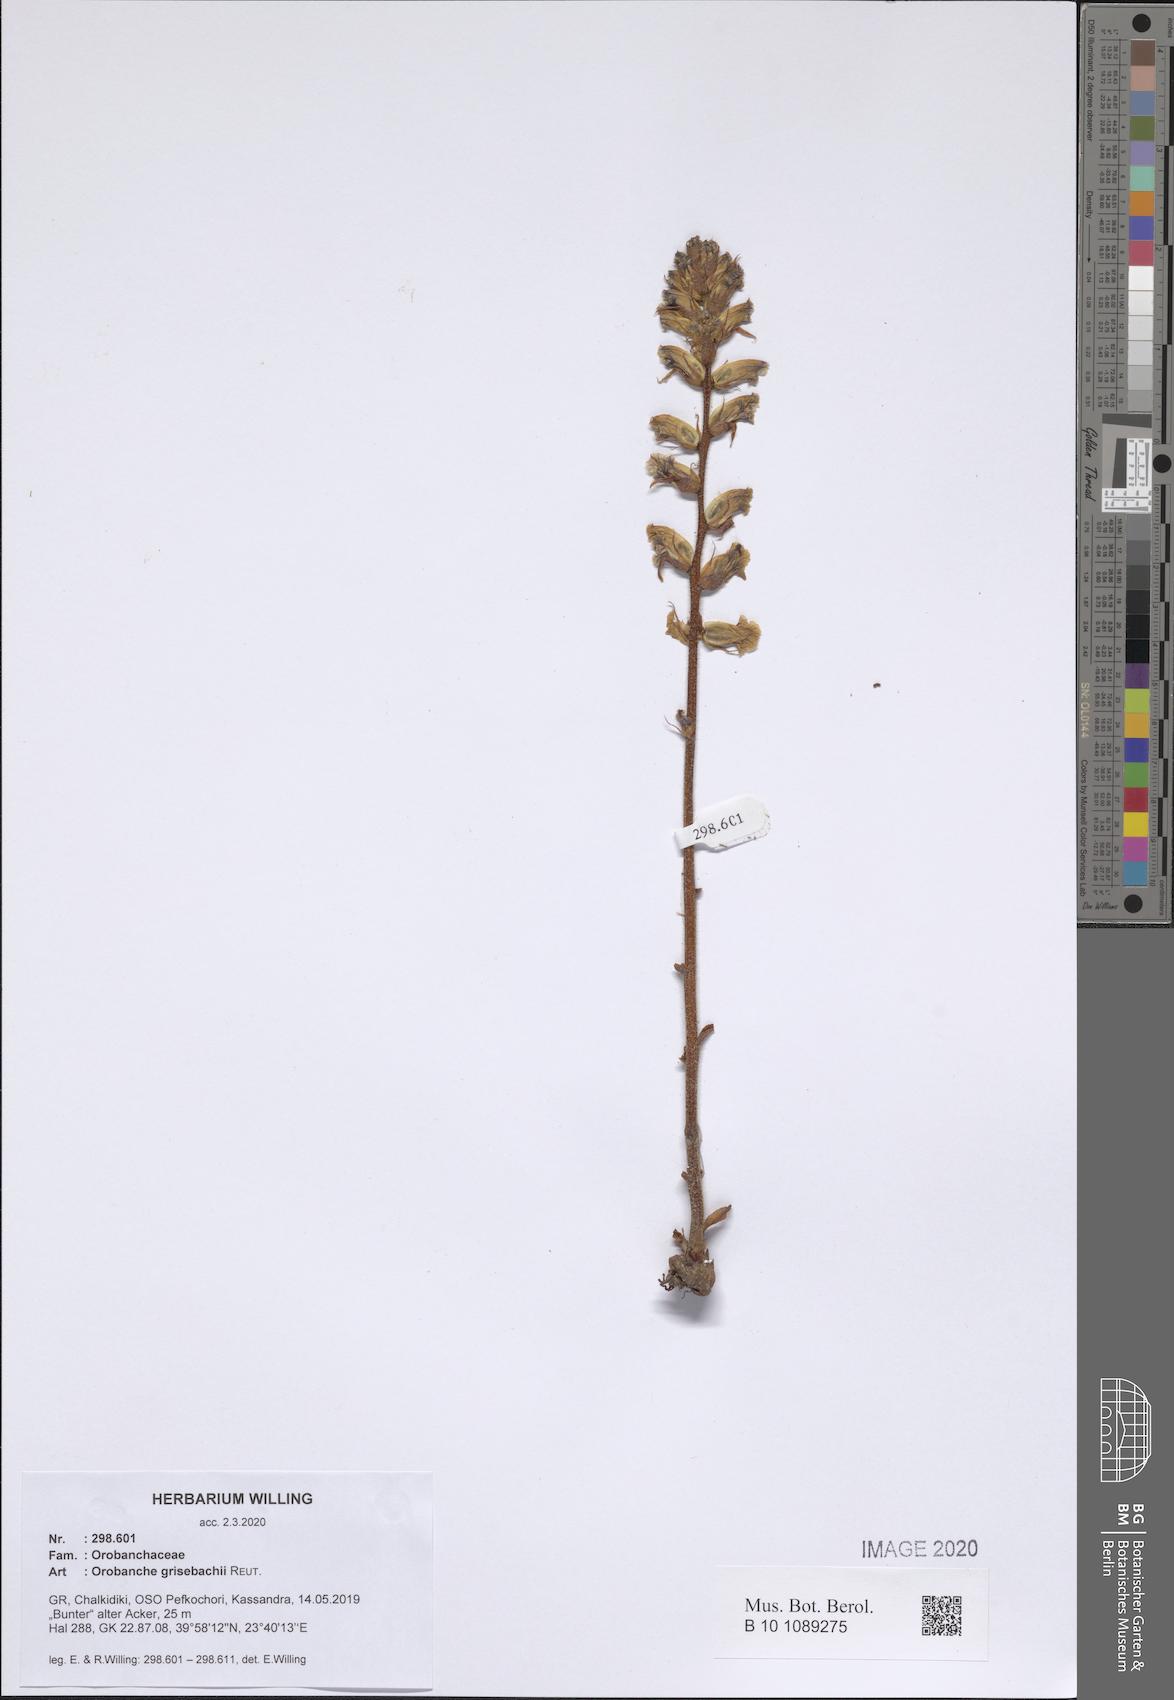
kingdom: Plantae
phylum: Tracheophyta
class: Magnoliopsida
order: Lamiales
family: Orobanchaceae
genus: Orobanche
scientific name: Orobanche grisebachii
